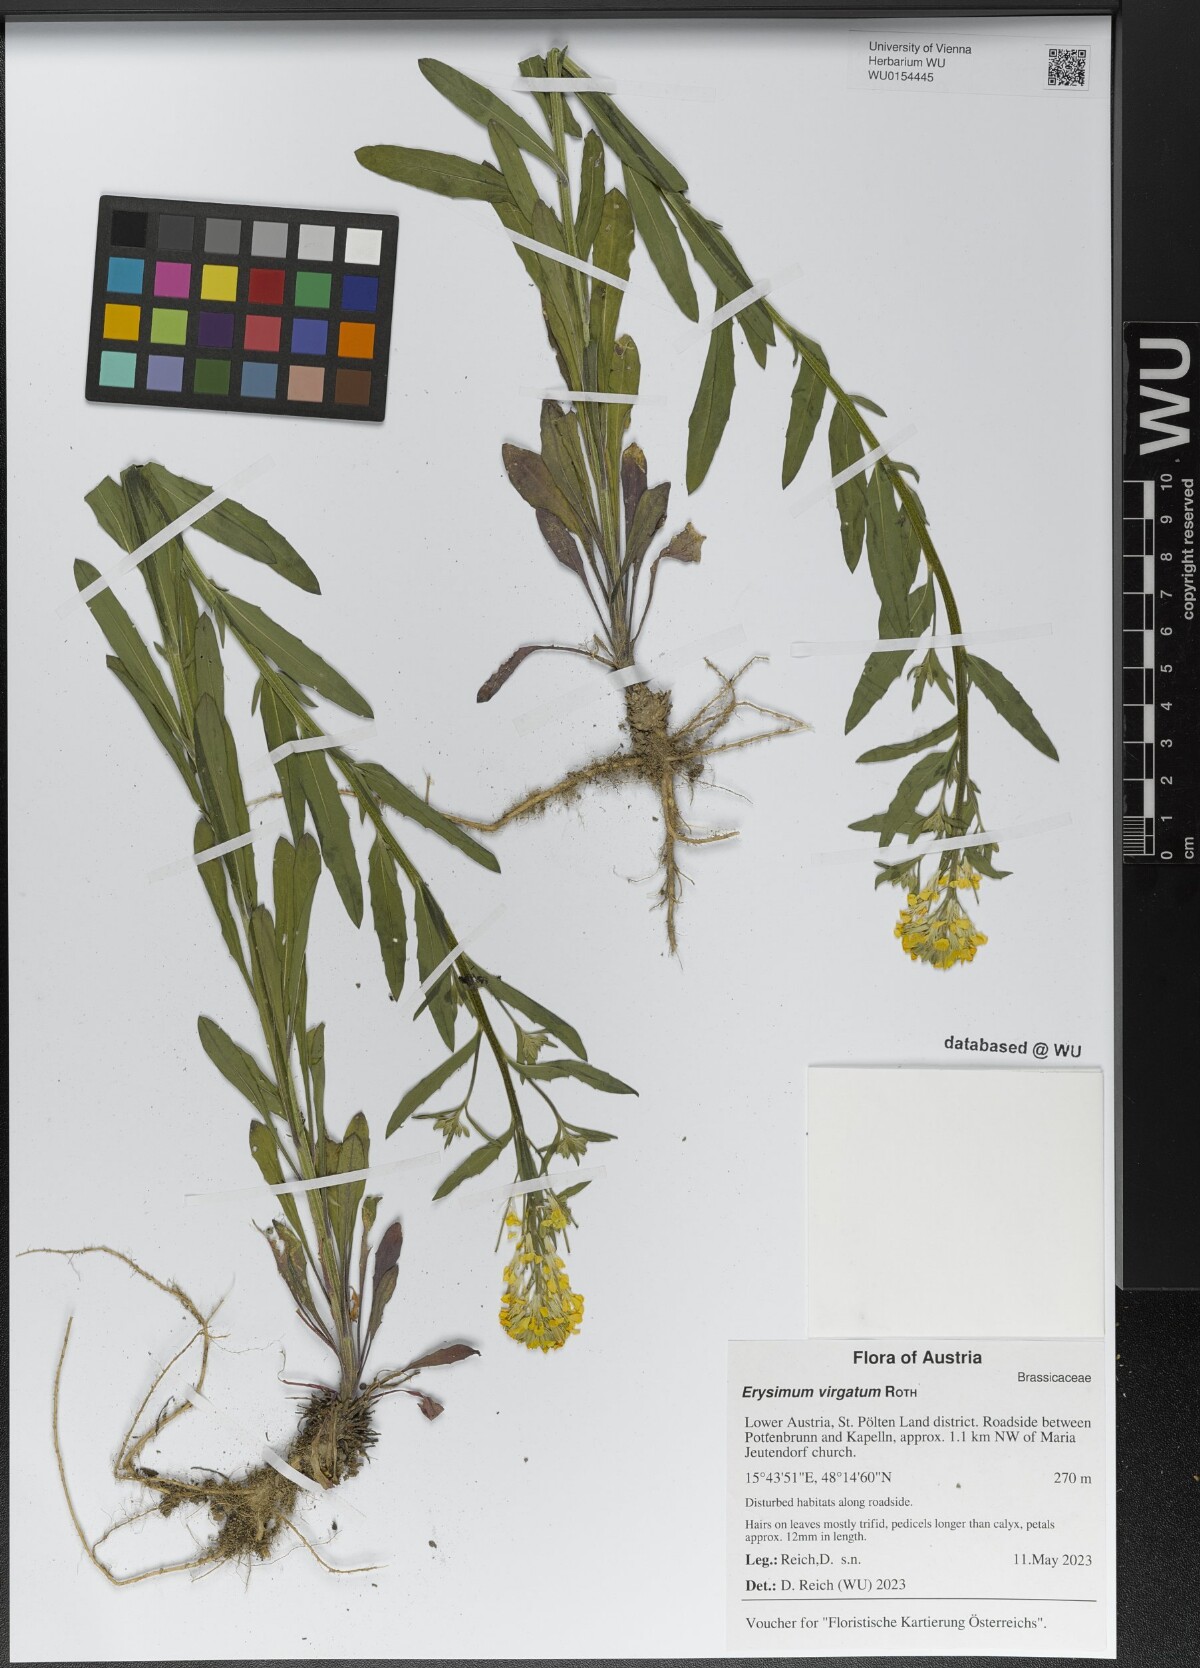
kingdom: Plantae
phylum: Tracheophyta
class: Magnoliopsida
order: Brassicales
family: Brassicaceae
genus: Erysimum
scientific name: Erysimum virgatum
